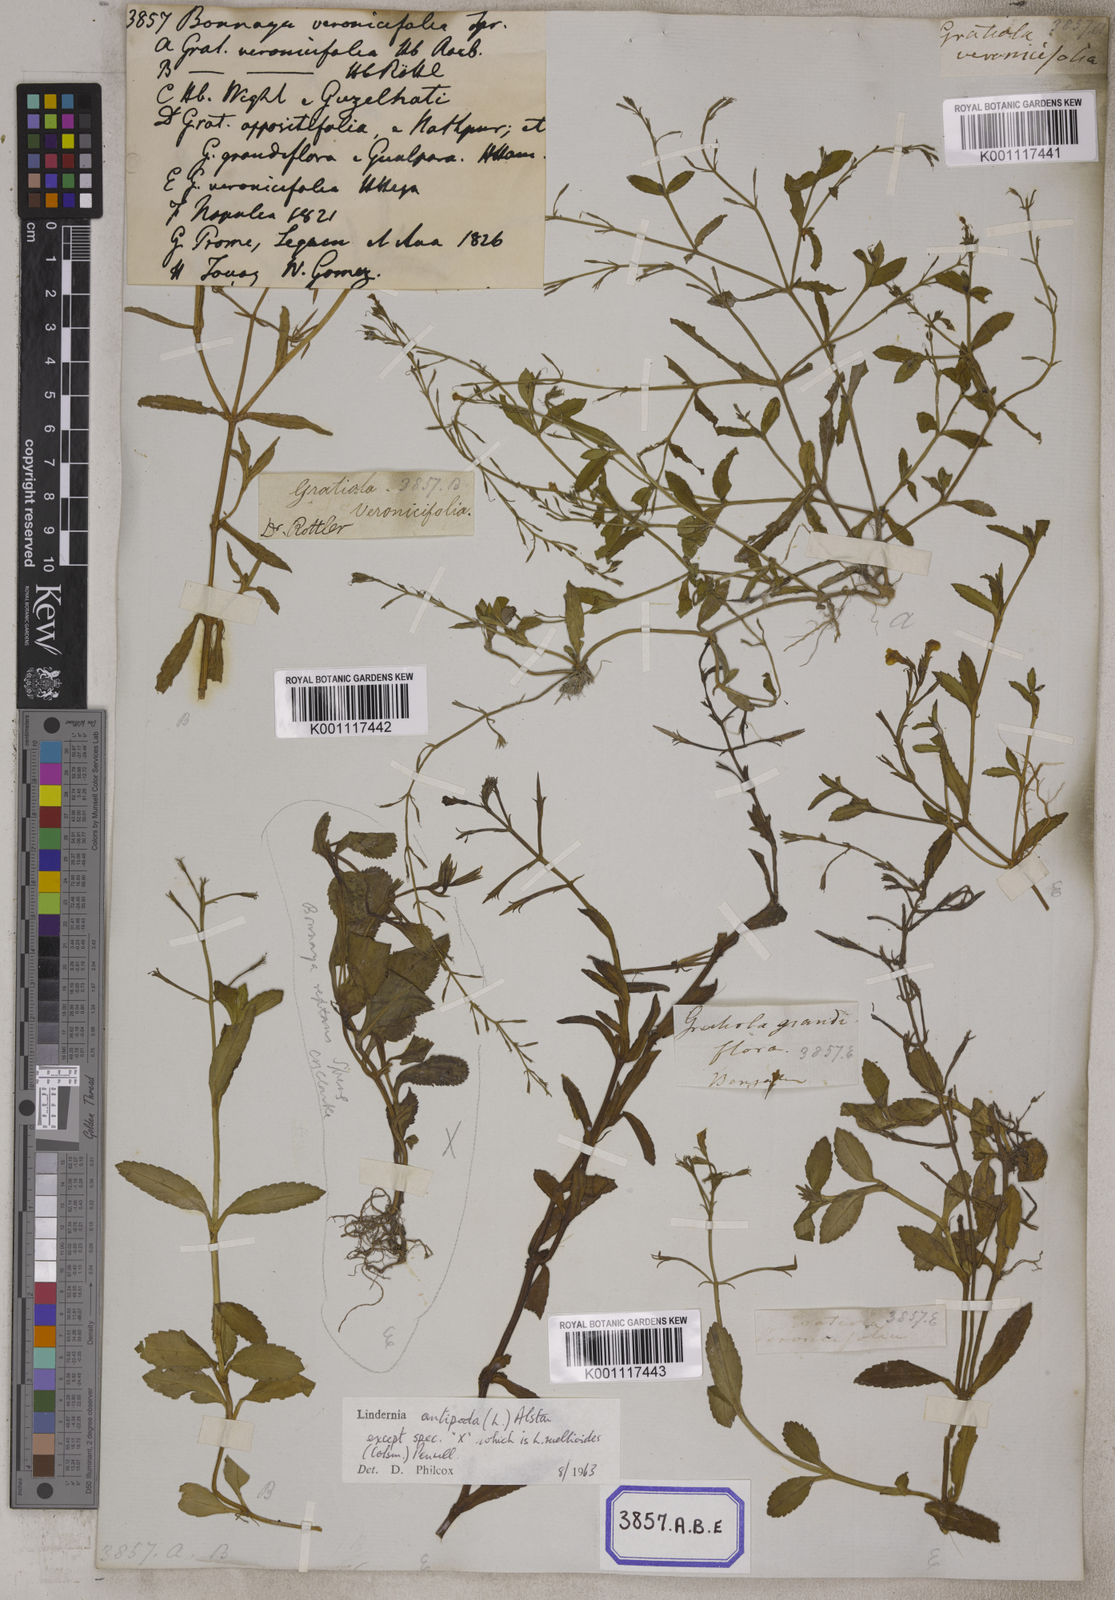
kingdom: Plantae
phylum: Tracheophyta
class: Magnoliopsida
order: Lamiales
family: Linderniaceae
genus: Bonnaya
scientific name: Bonnaya veronicifolia
